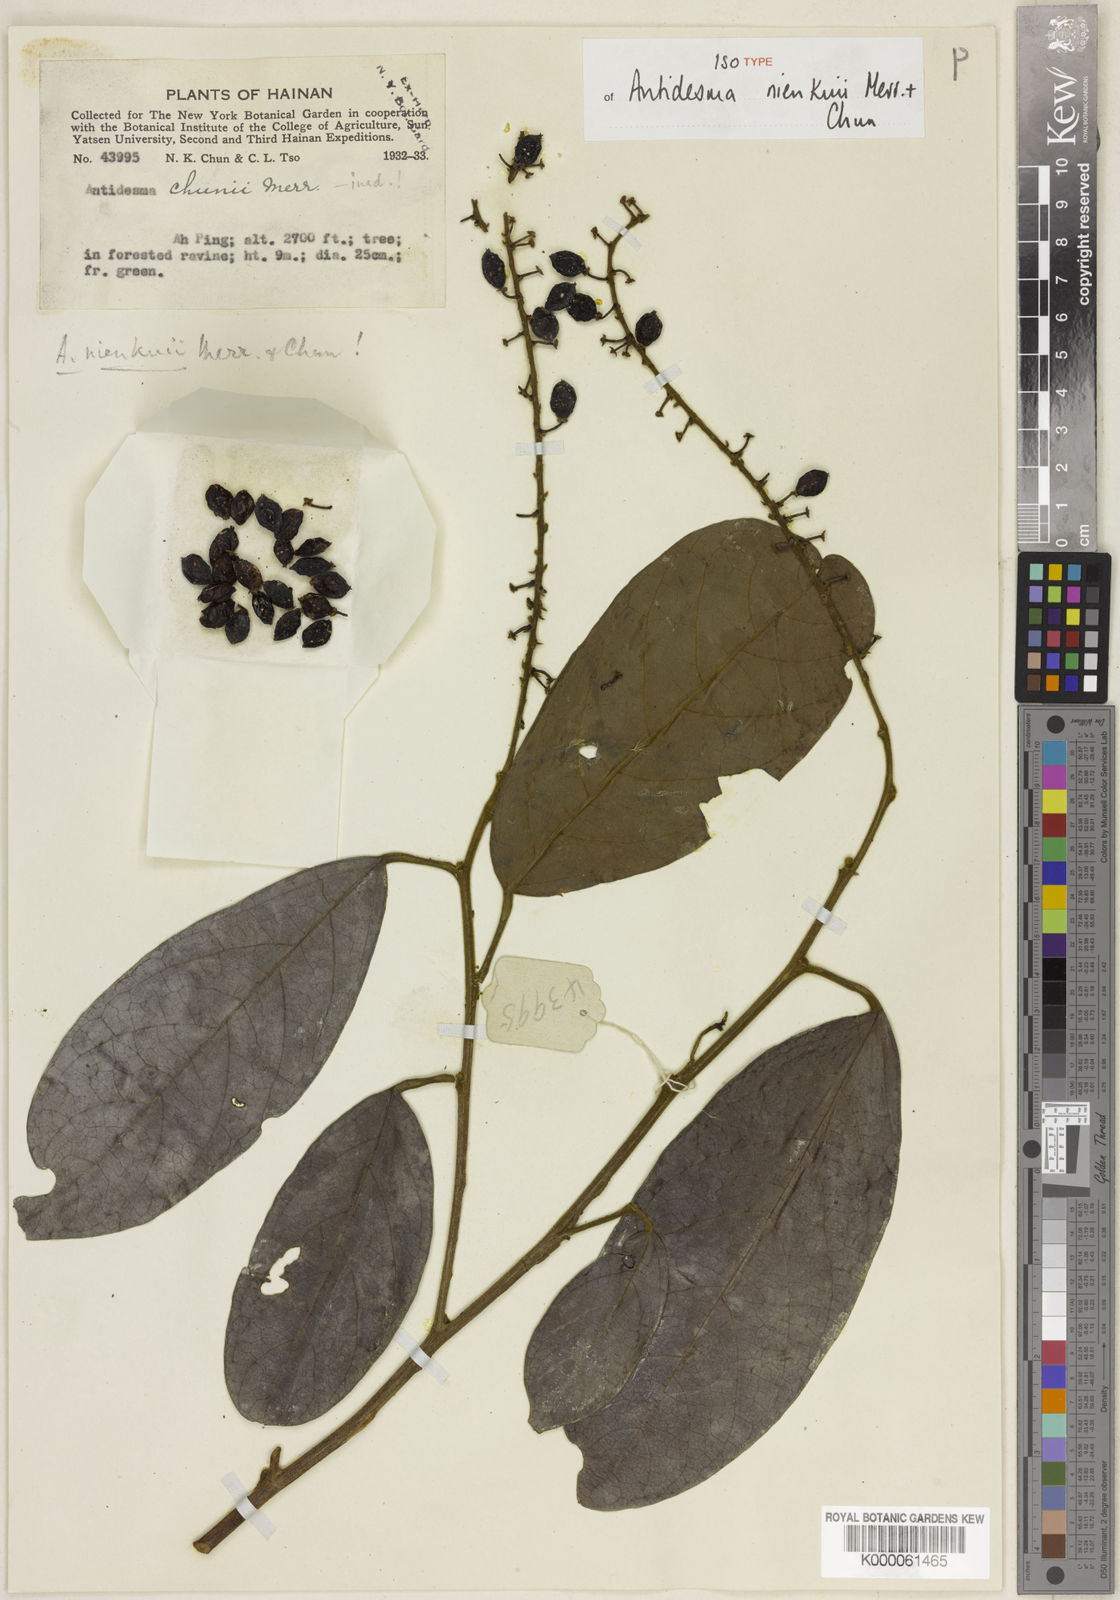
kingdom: Plantae
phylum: Tracheophyta
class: Magnoliopsida
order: Malpighiales
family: Phyllanthaceae
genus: Antidesma
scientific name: Antidesma nienkui
